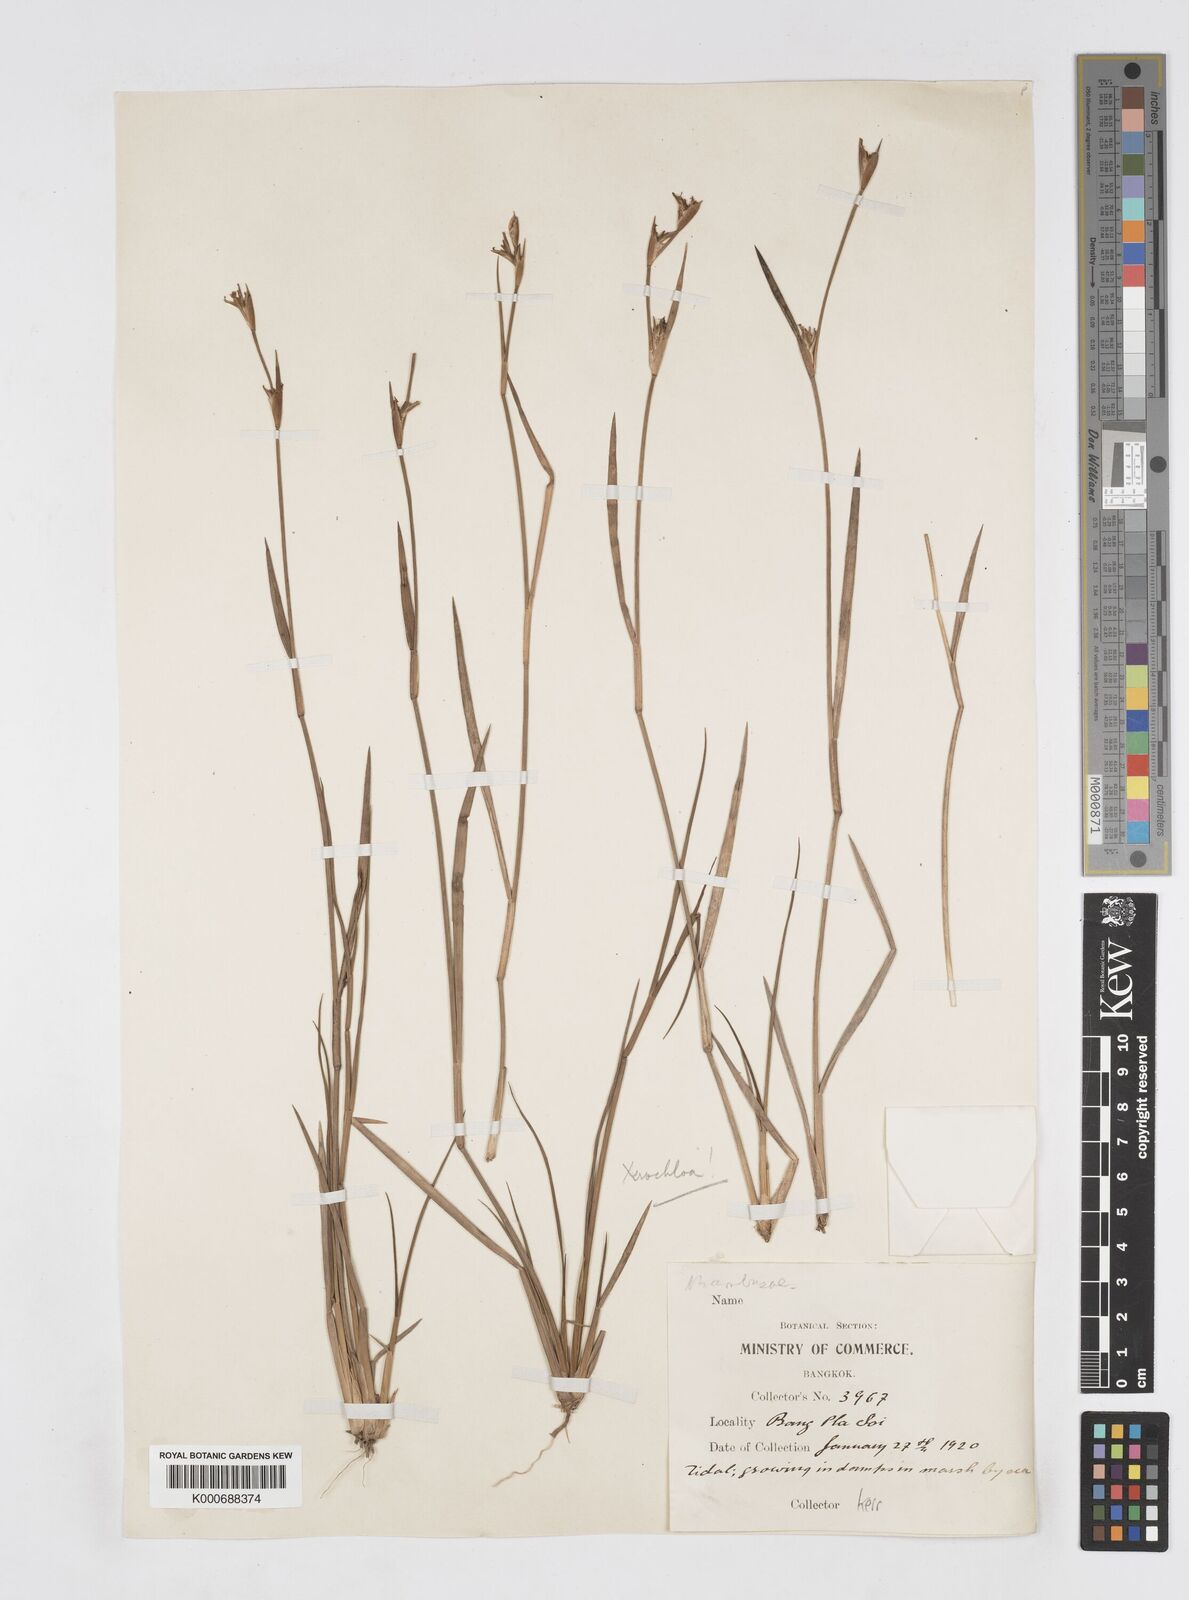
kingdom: Plantae
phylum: Tracheophyta
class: Liliopsida
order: Poales
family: Poaceae
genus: Xerochloa
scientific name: Xerochloa imberbis
